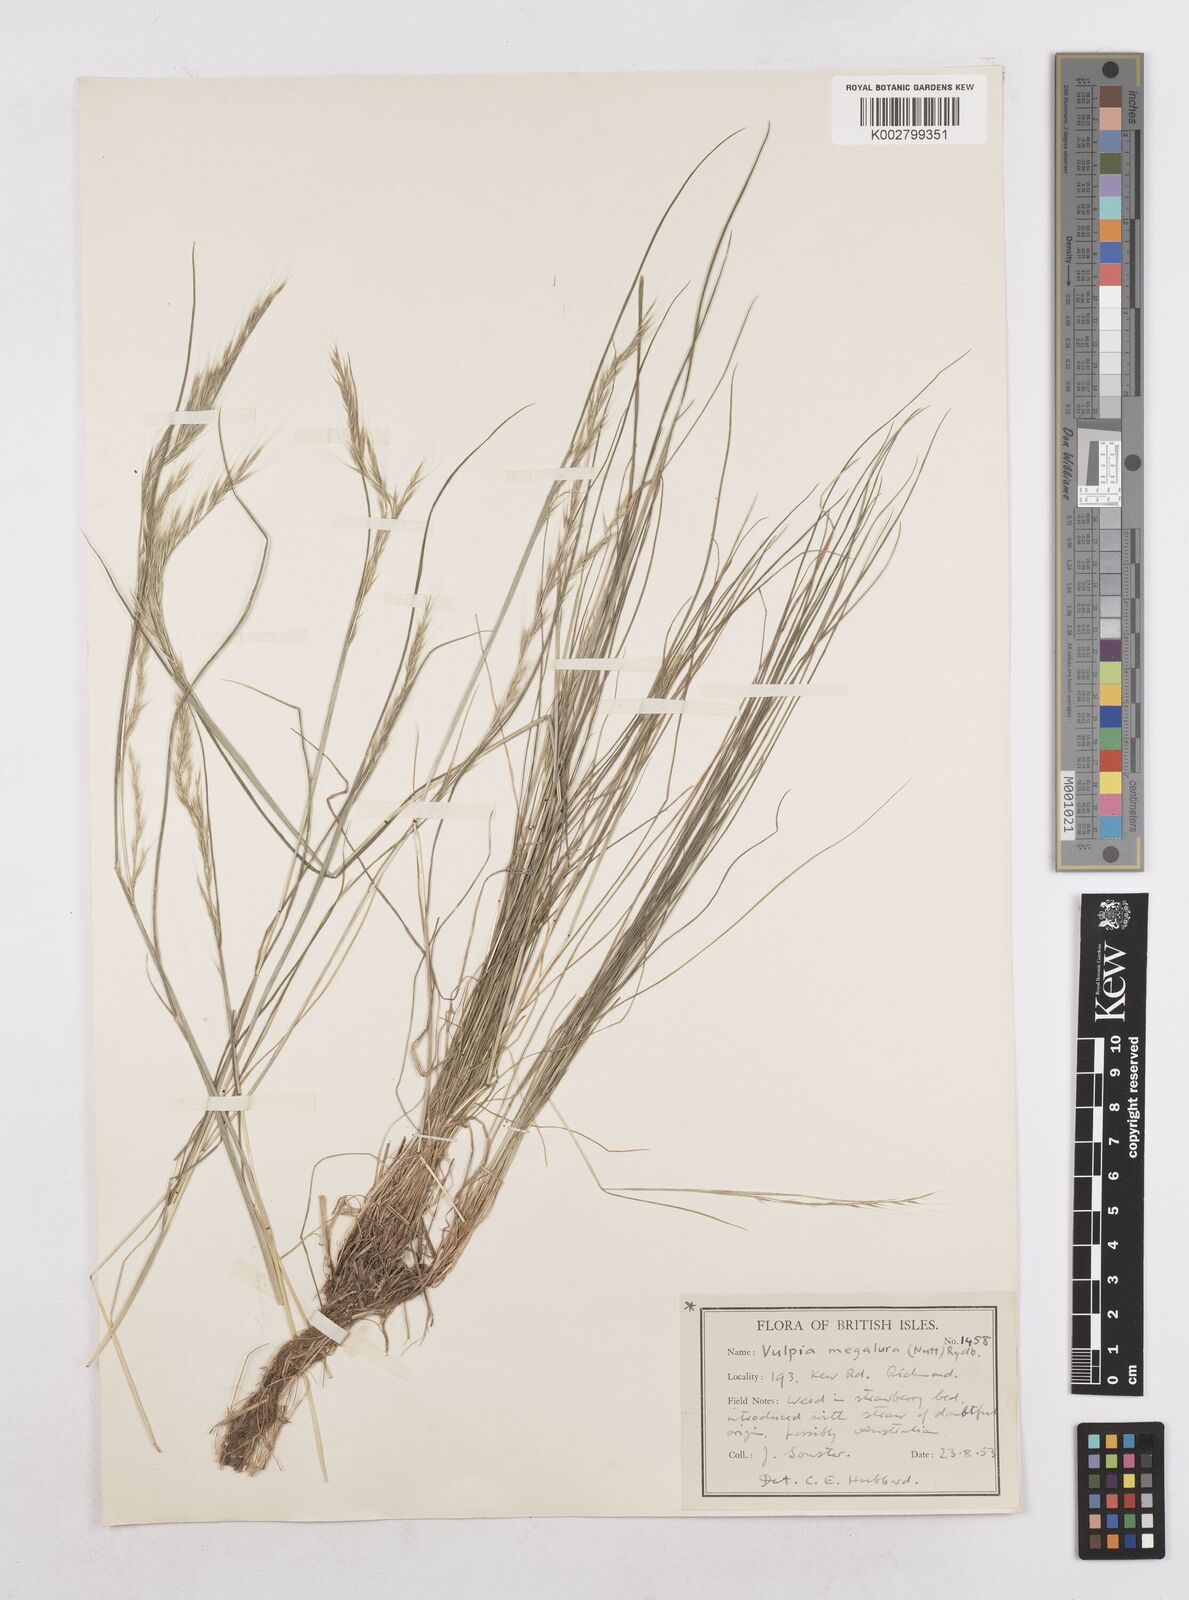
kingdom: Plantae
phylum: Tracheophyta
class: Liliopsida
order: Poales
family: Poaceae
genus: Festuca
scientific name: Festuca myuros
